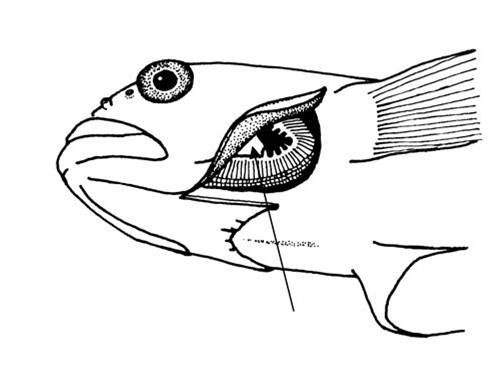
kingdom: Animalia
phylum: Chordata
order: Perciformes
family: Gobiidae
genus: Coryogalops
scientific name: Coryogalops
